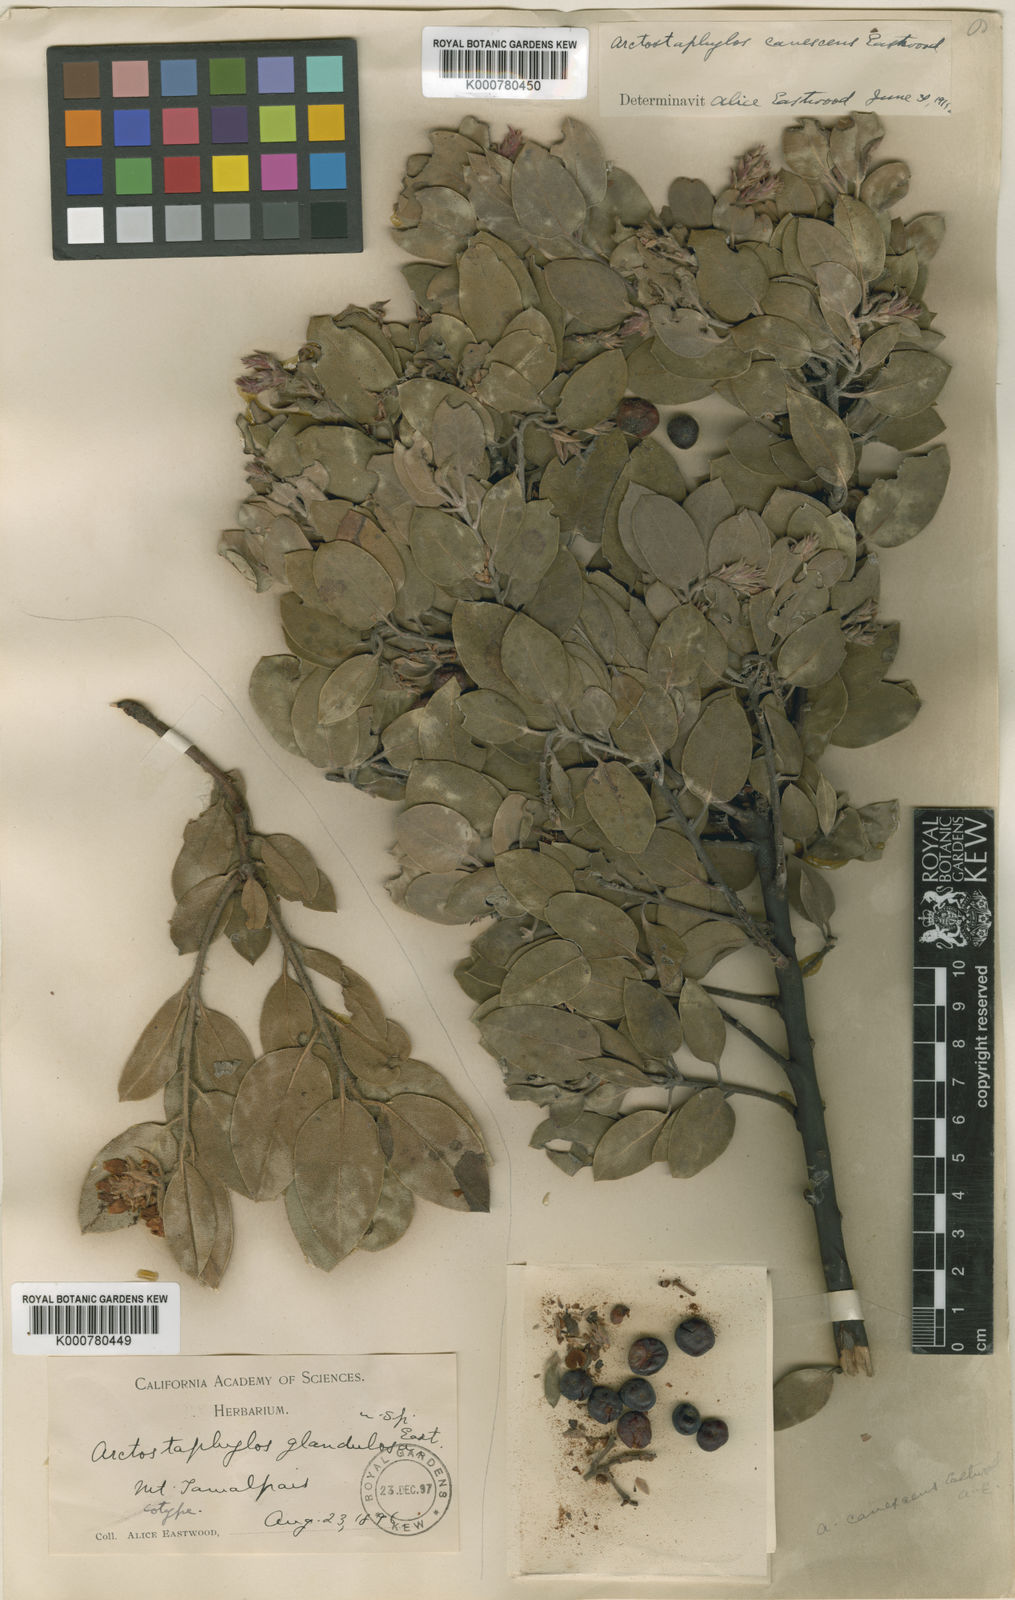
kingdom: Plantae
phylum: Tracheophyta
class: Magnoliopsida
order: Ericales
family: Ericaceae
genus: Arctostaphylos
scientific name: Arctostaphylos canescens
